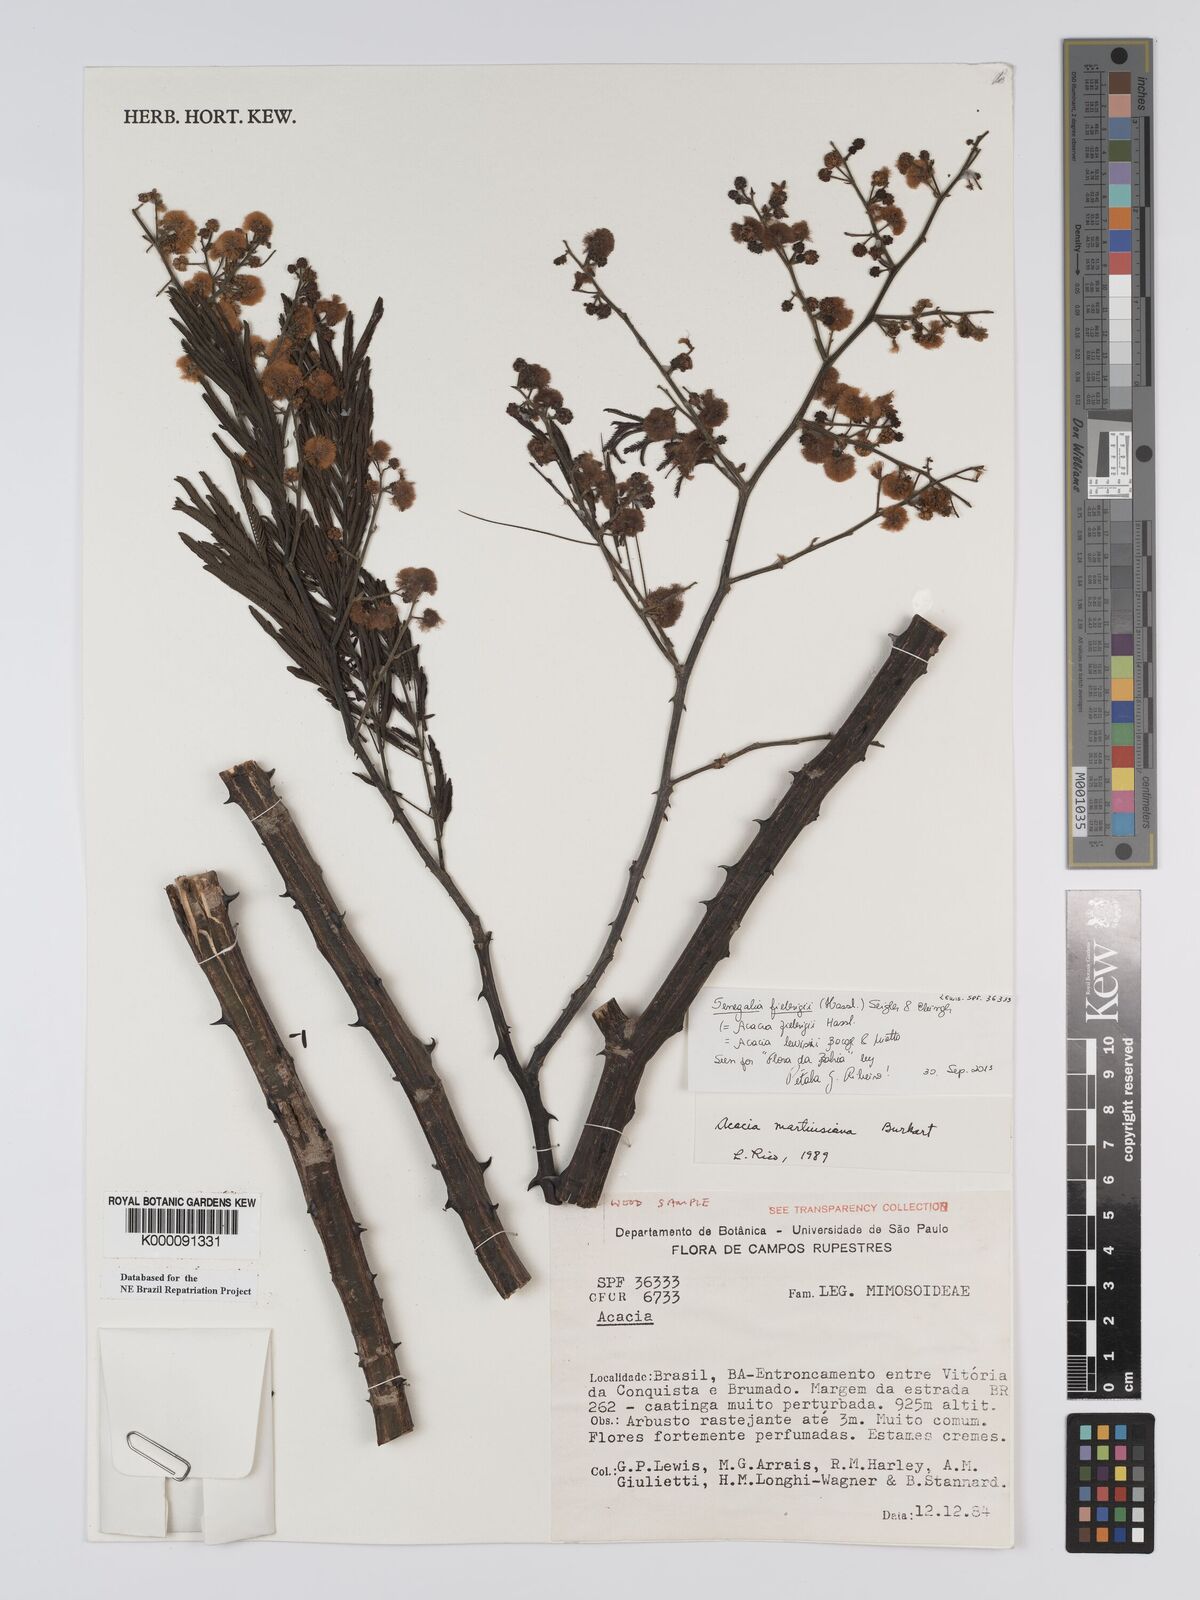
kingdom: Plantae
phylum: Tracheophyta
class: Magnoliopsida
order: Fabales
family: Fabaceae
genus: Senegalia
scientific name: Senegalia martiusiana
